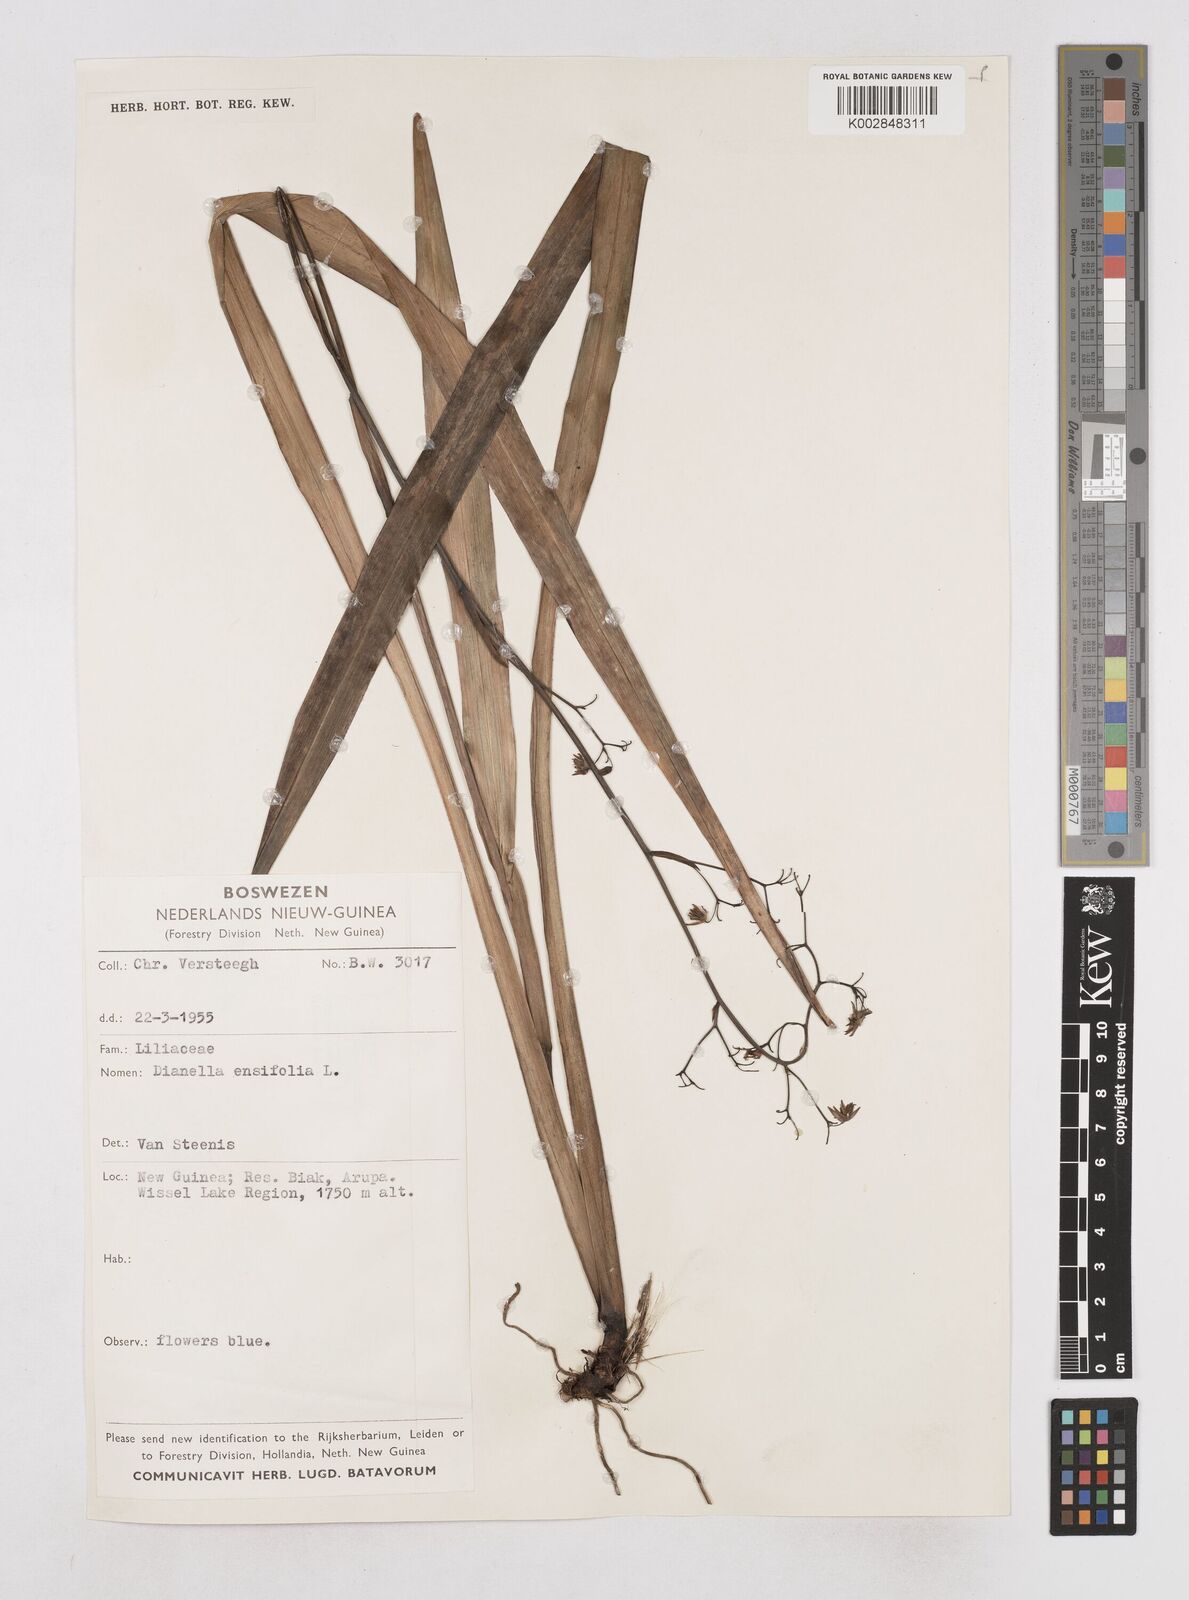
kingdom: Plantae
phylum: Tracheophyta
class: Liliopsida
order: Asparagales
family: Asphodelaceae
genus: Dianella
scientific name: Dianella ensifolia
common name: New zealand lilyplant
